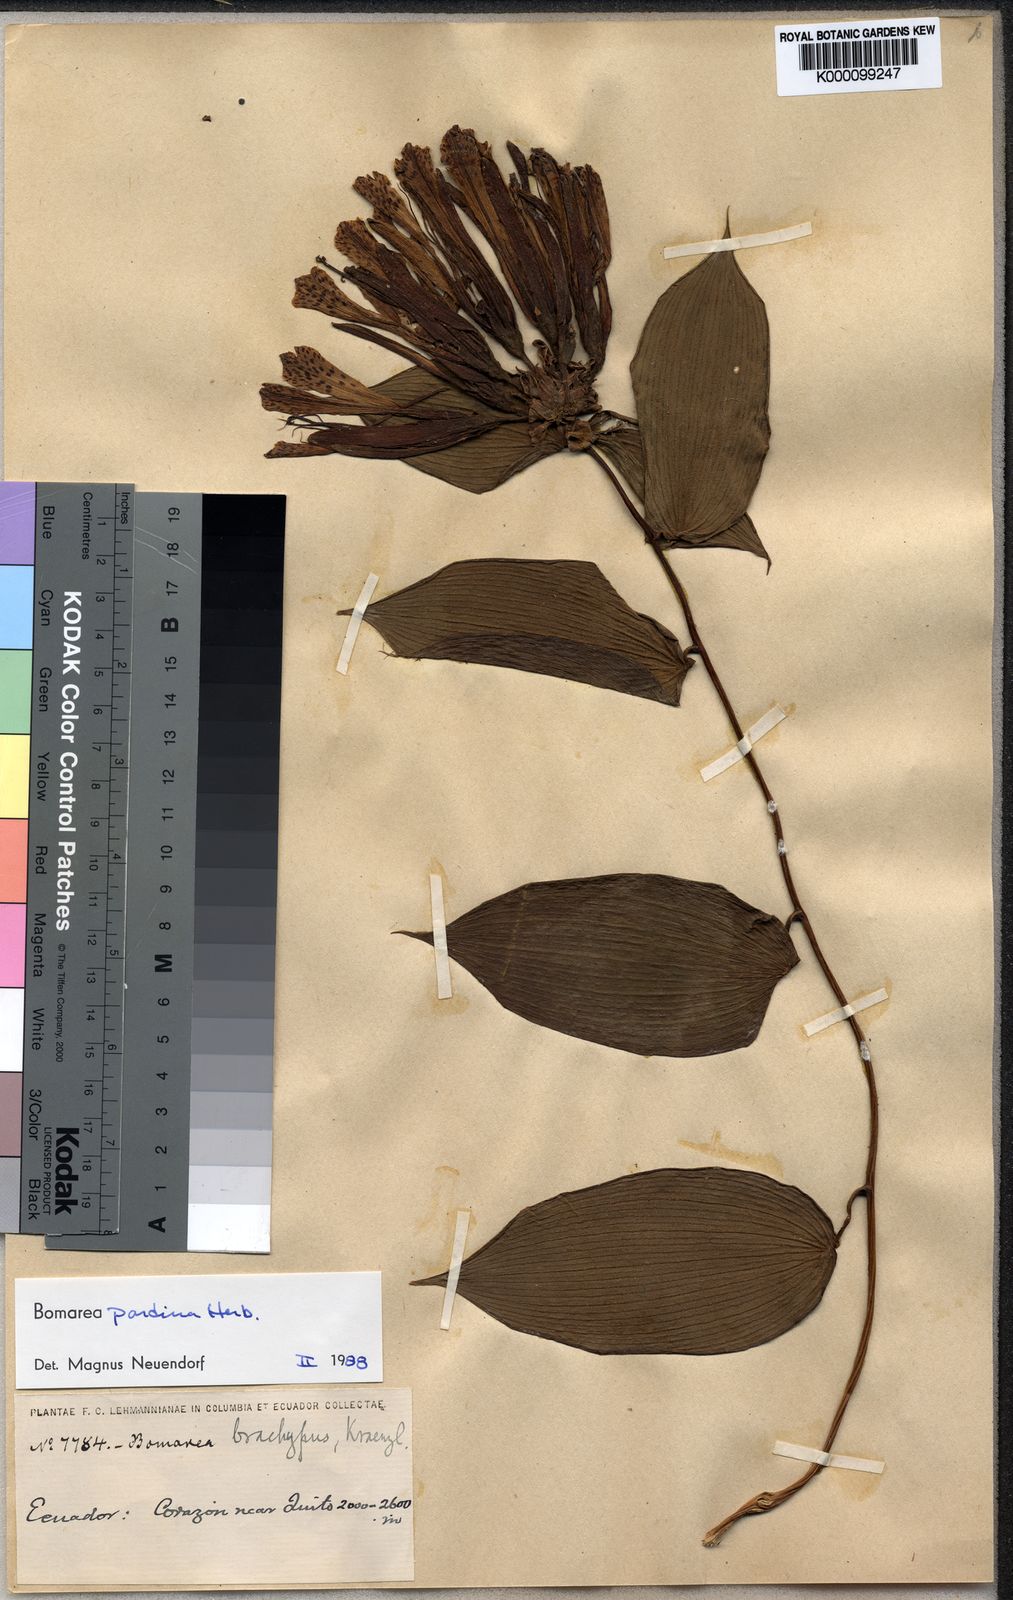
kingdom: Plantae
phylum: Tracheophyta
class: Liliopsida
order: Liliales
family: Alstroemeriaceae
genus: Bomarea
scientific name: Bomarea pardina
